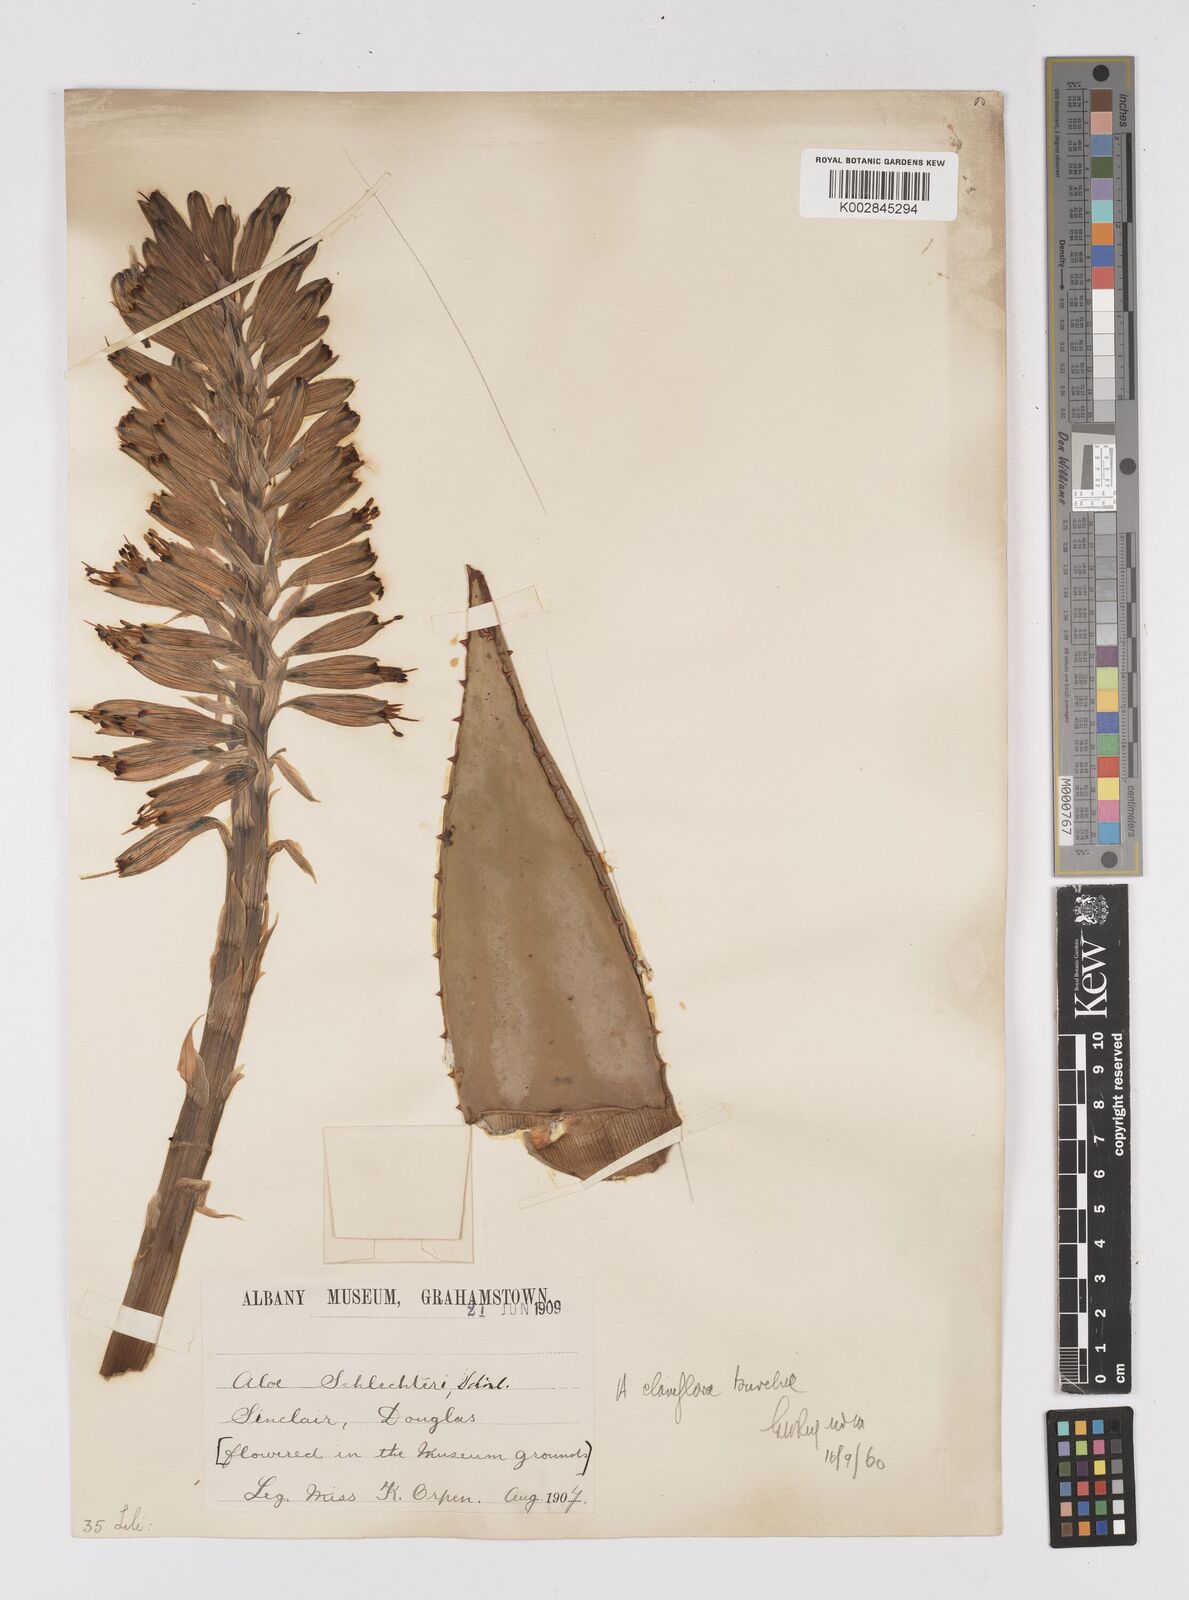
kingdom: Plantae
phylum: Tracheophyta
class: Liliopsida
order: Asparagales
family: Asphodelaceae
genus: Aloe
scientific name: Aloe claviflora
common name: Cannon aloe
